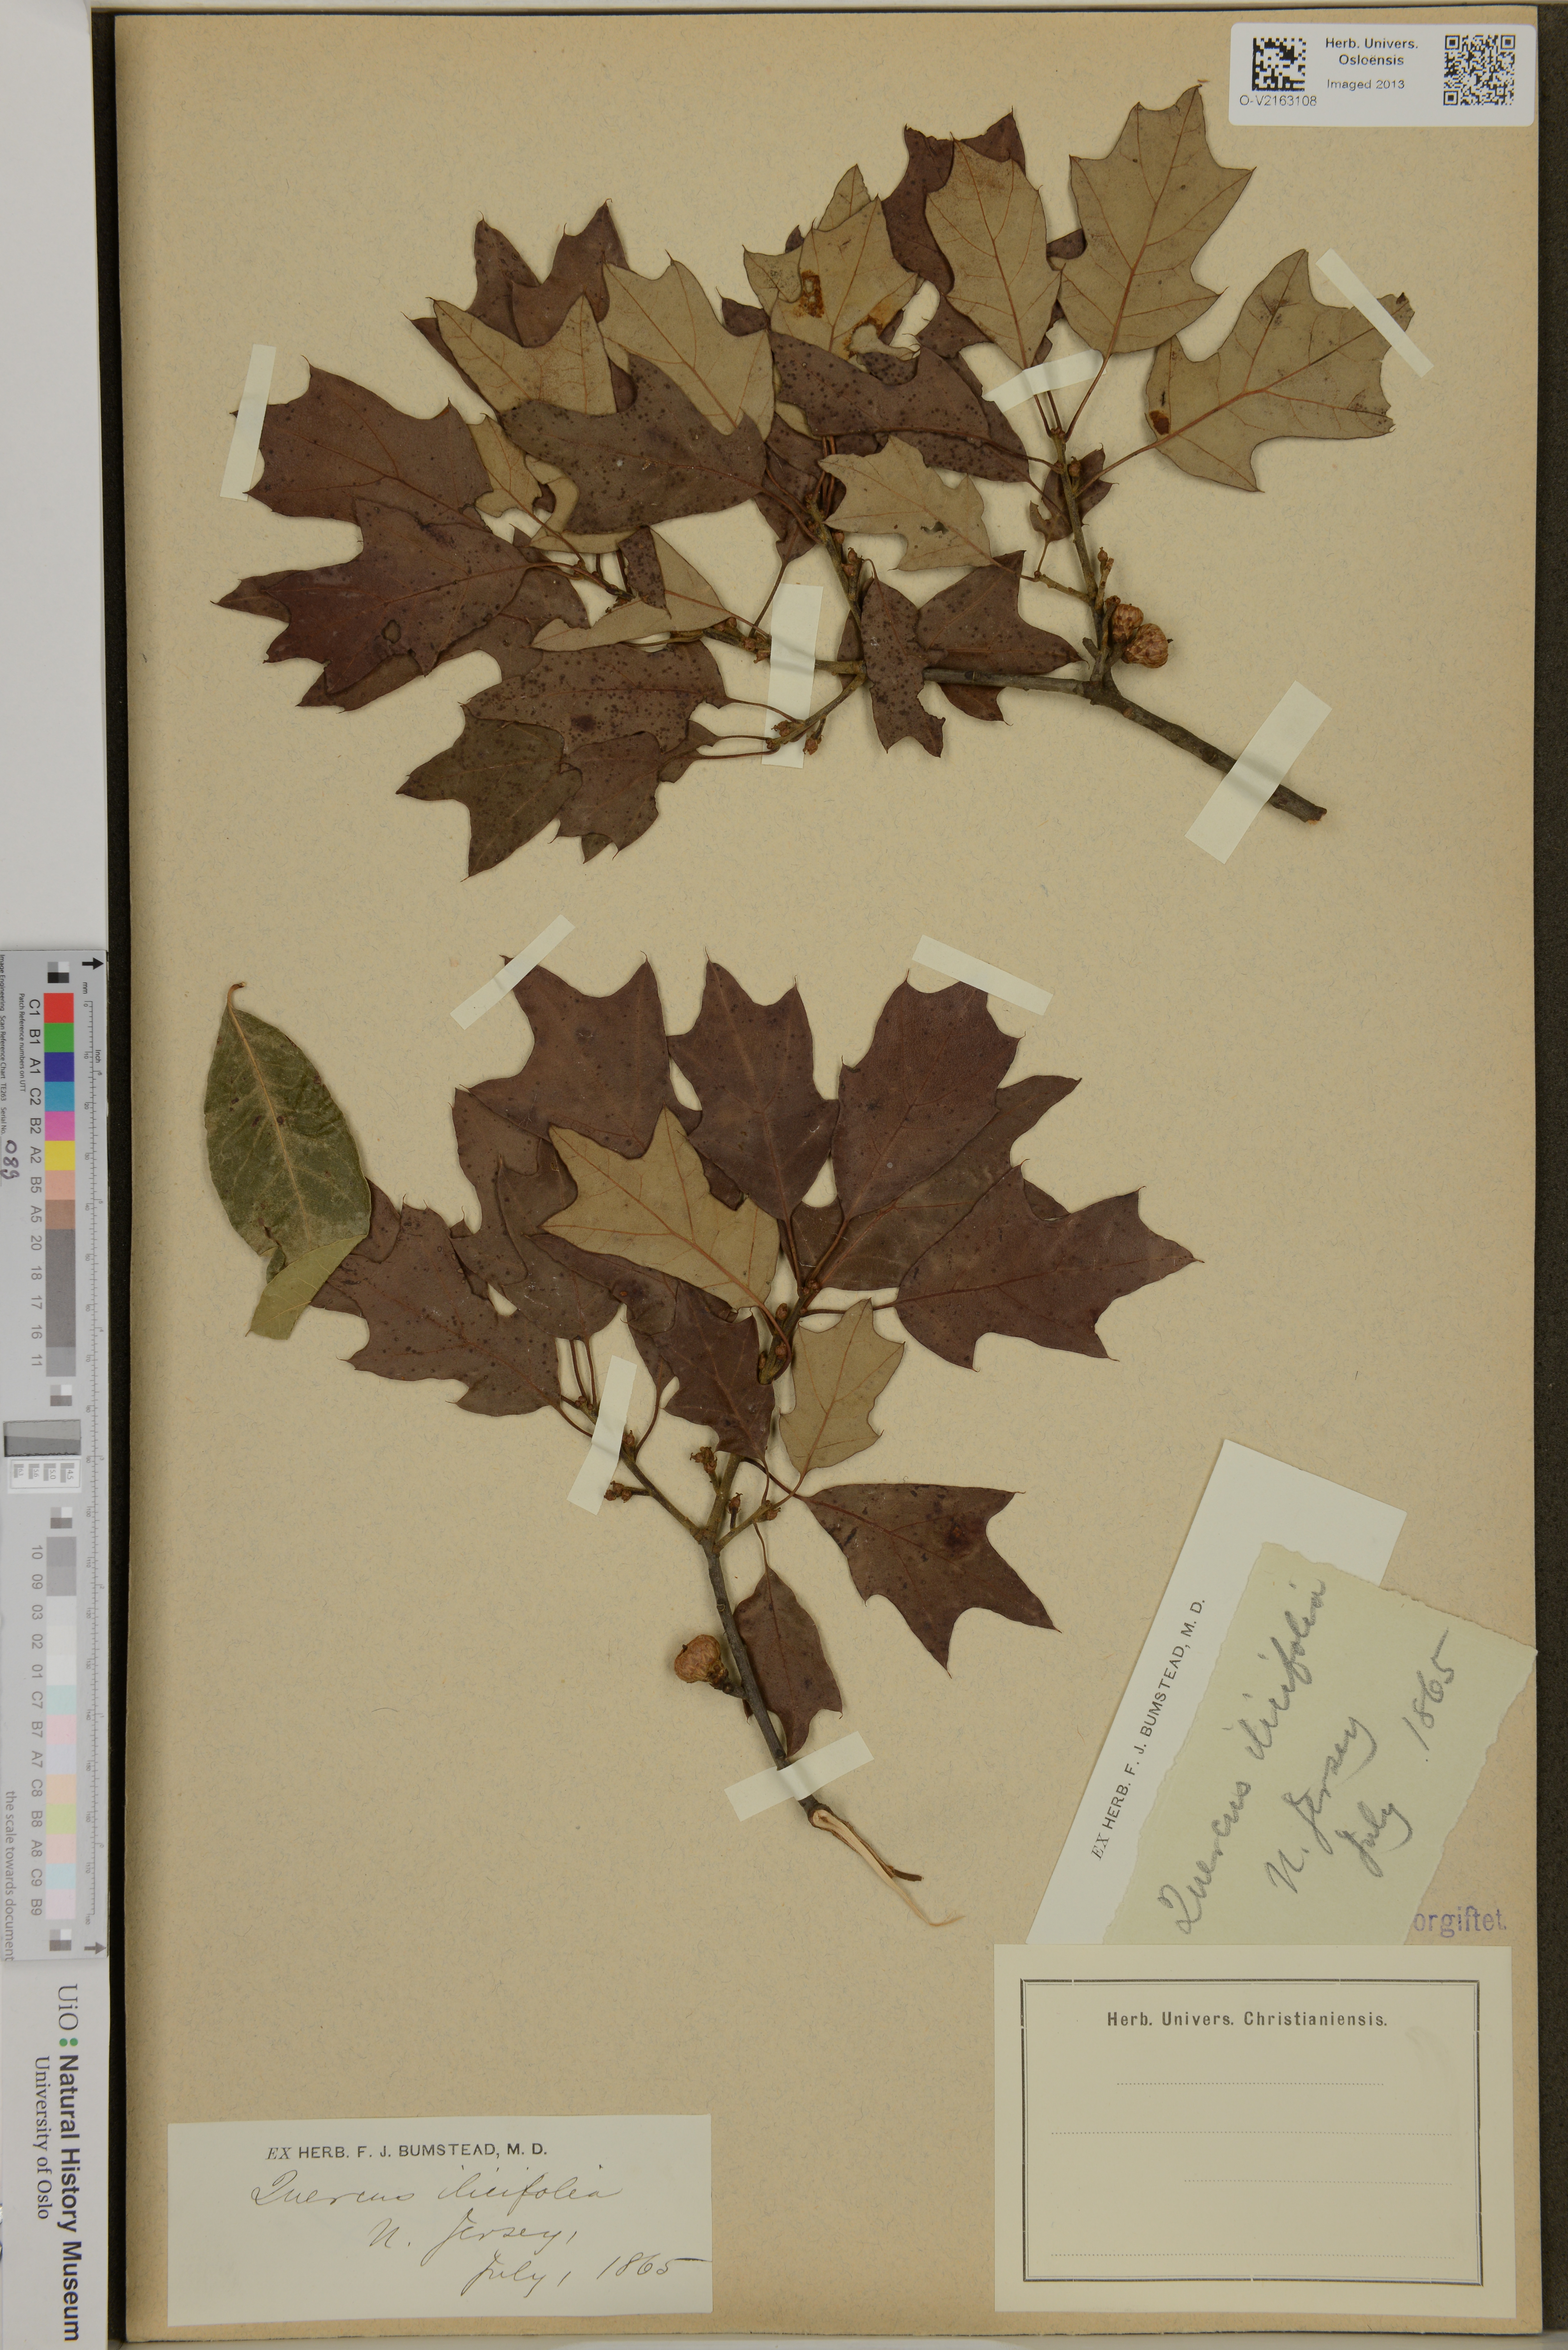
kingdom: Plantae
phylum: Tracheophyta
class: Magnoliopsida
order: Fagales
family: Fagaceae
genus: Quercus
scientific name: Quercus ilicifolia
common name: Bear oak
